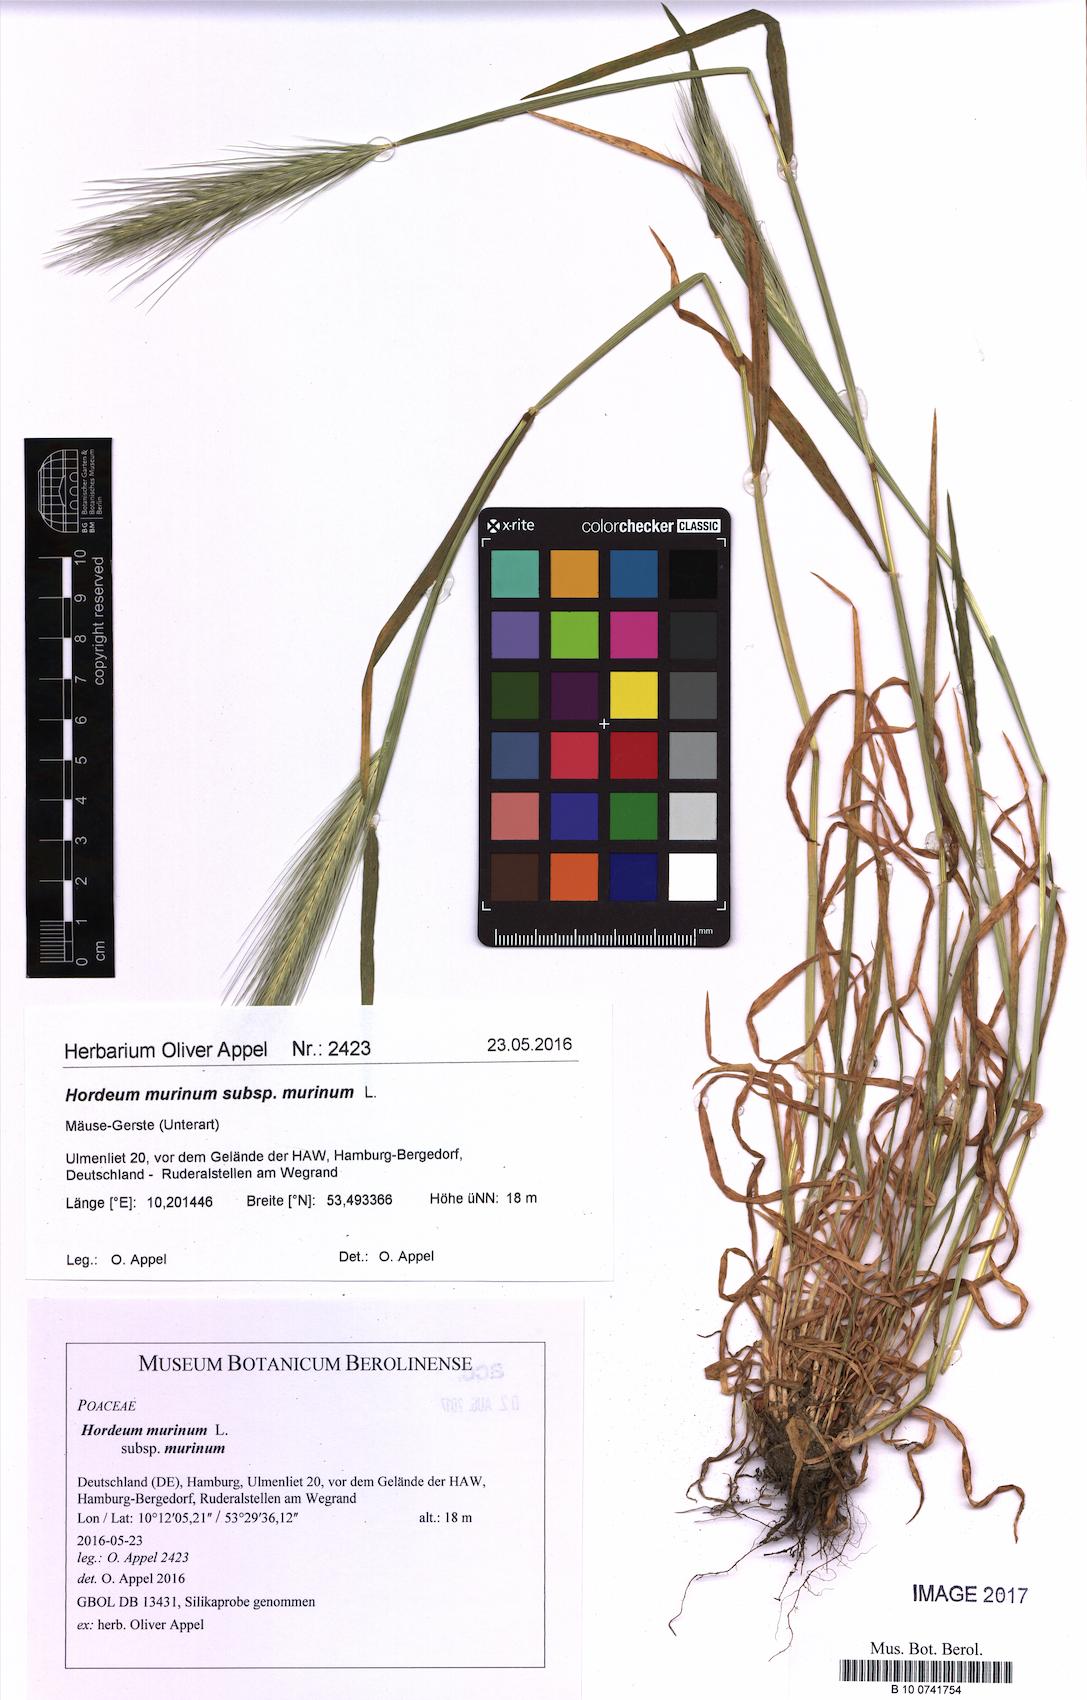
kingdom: Plantae
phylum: Tracheophyta
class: Liliopsida
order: Poales
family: Poaceae
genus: Hordeum
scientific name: Hordeum murinum
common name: Wall barley
